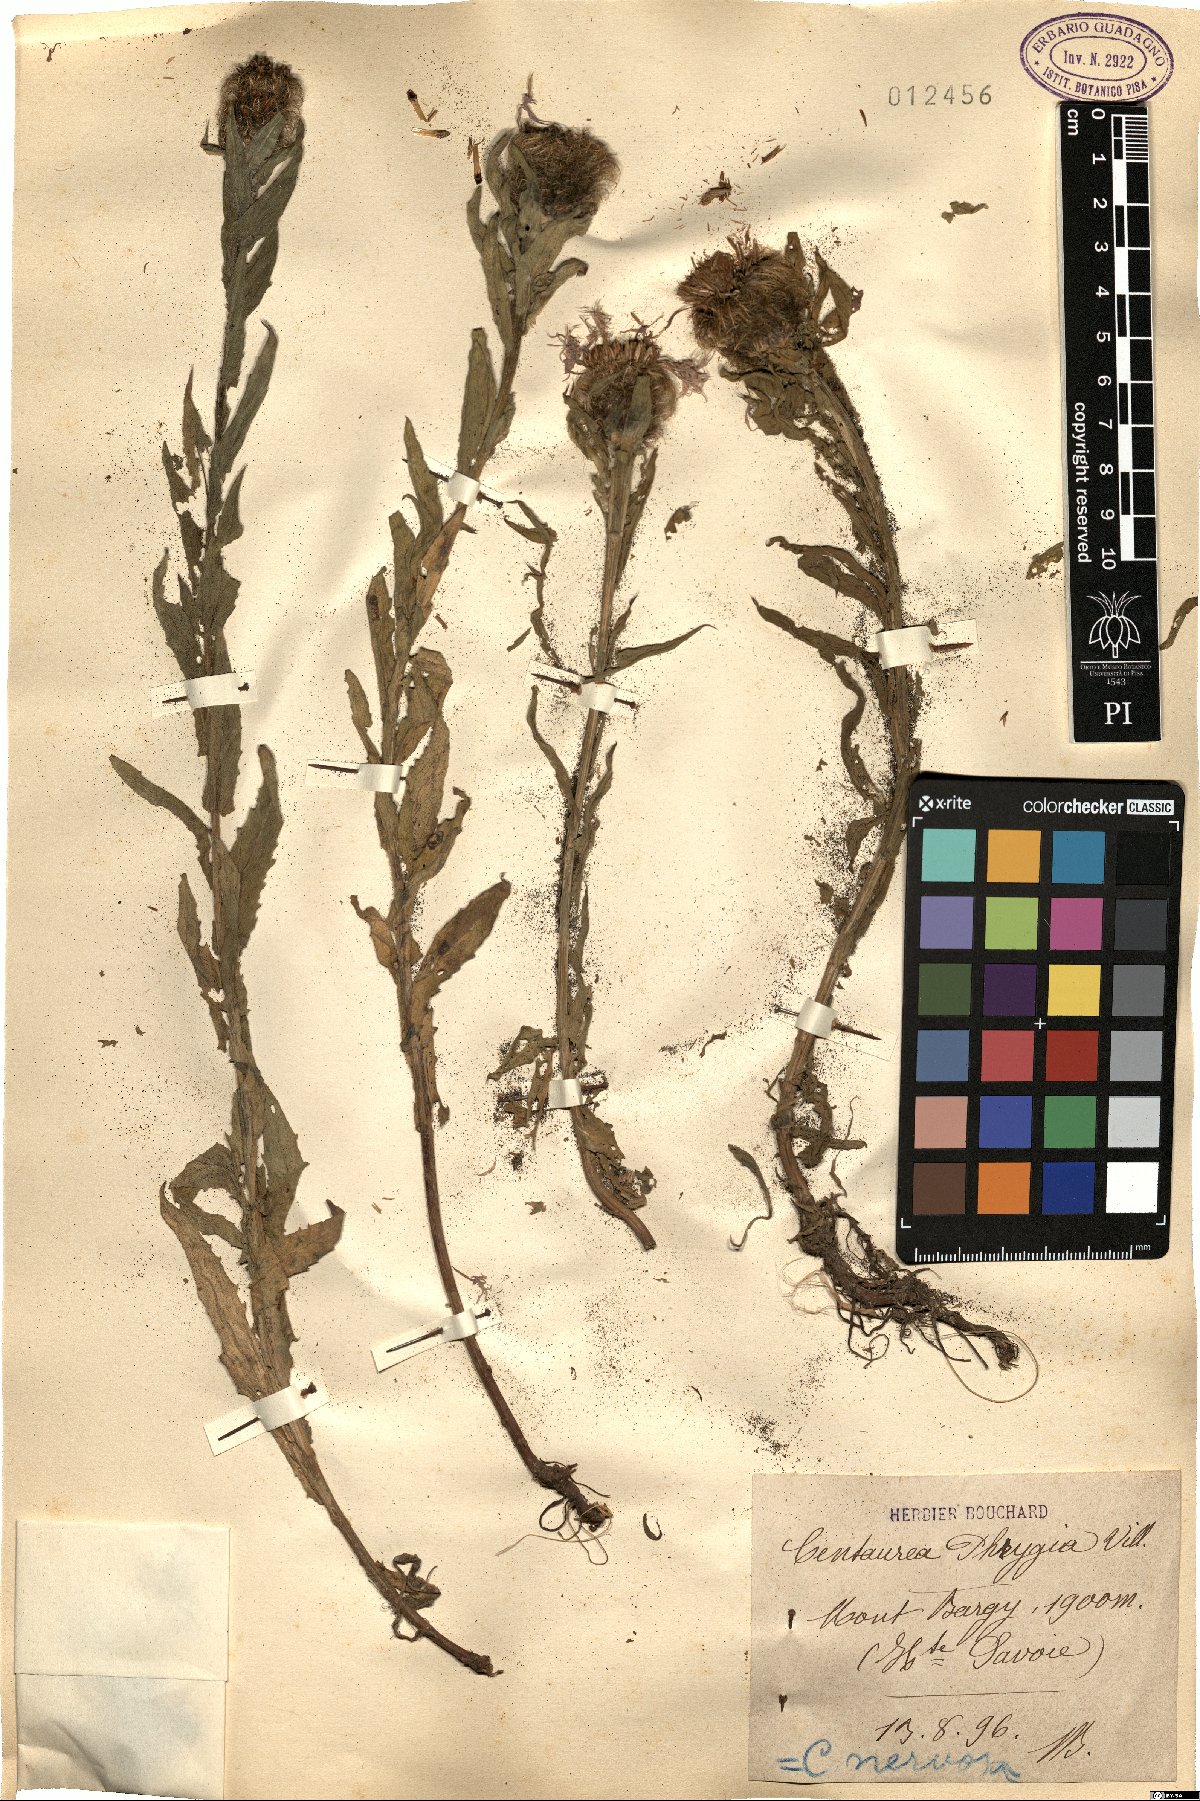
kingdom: Plantae
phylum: Tracheophyta
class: Magnoliopsida
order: Asterales
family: Asteraceae
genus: Centaurea
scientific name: Centaurea phrygia
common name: Wig knapweed
